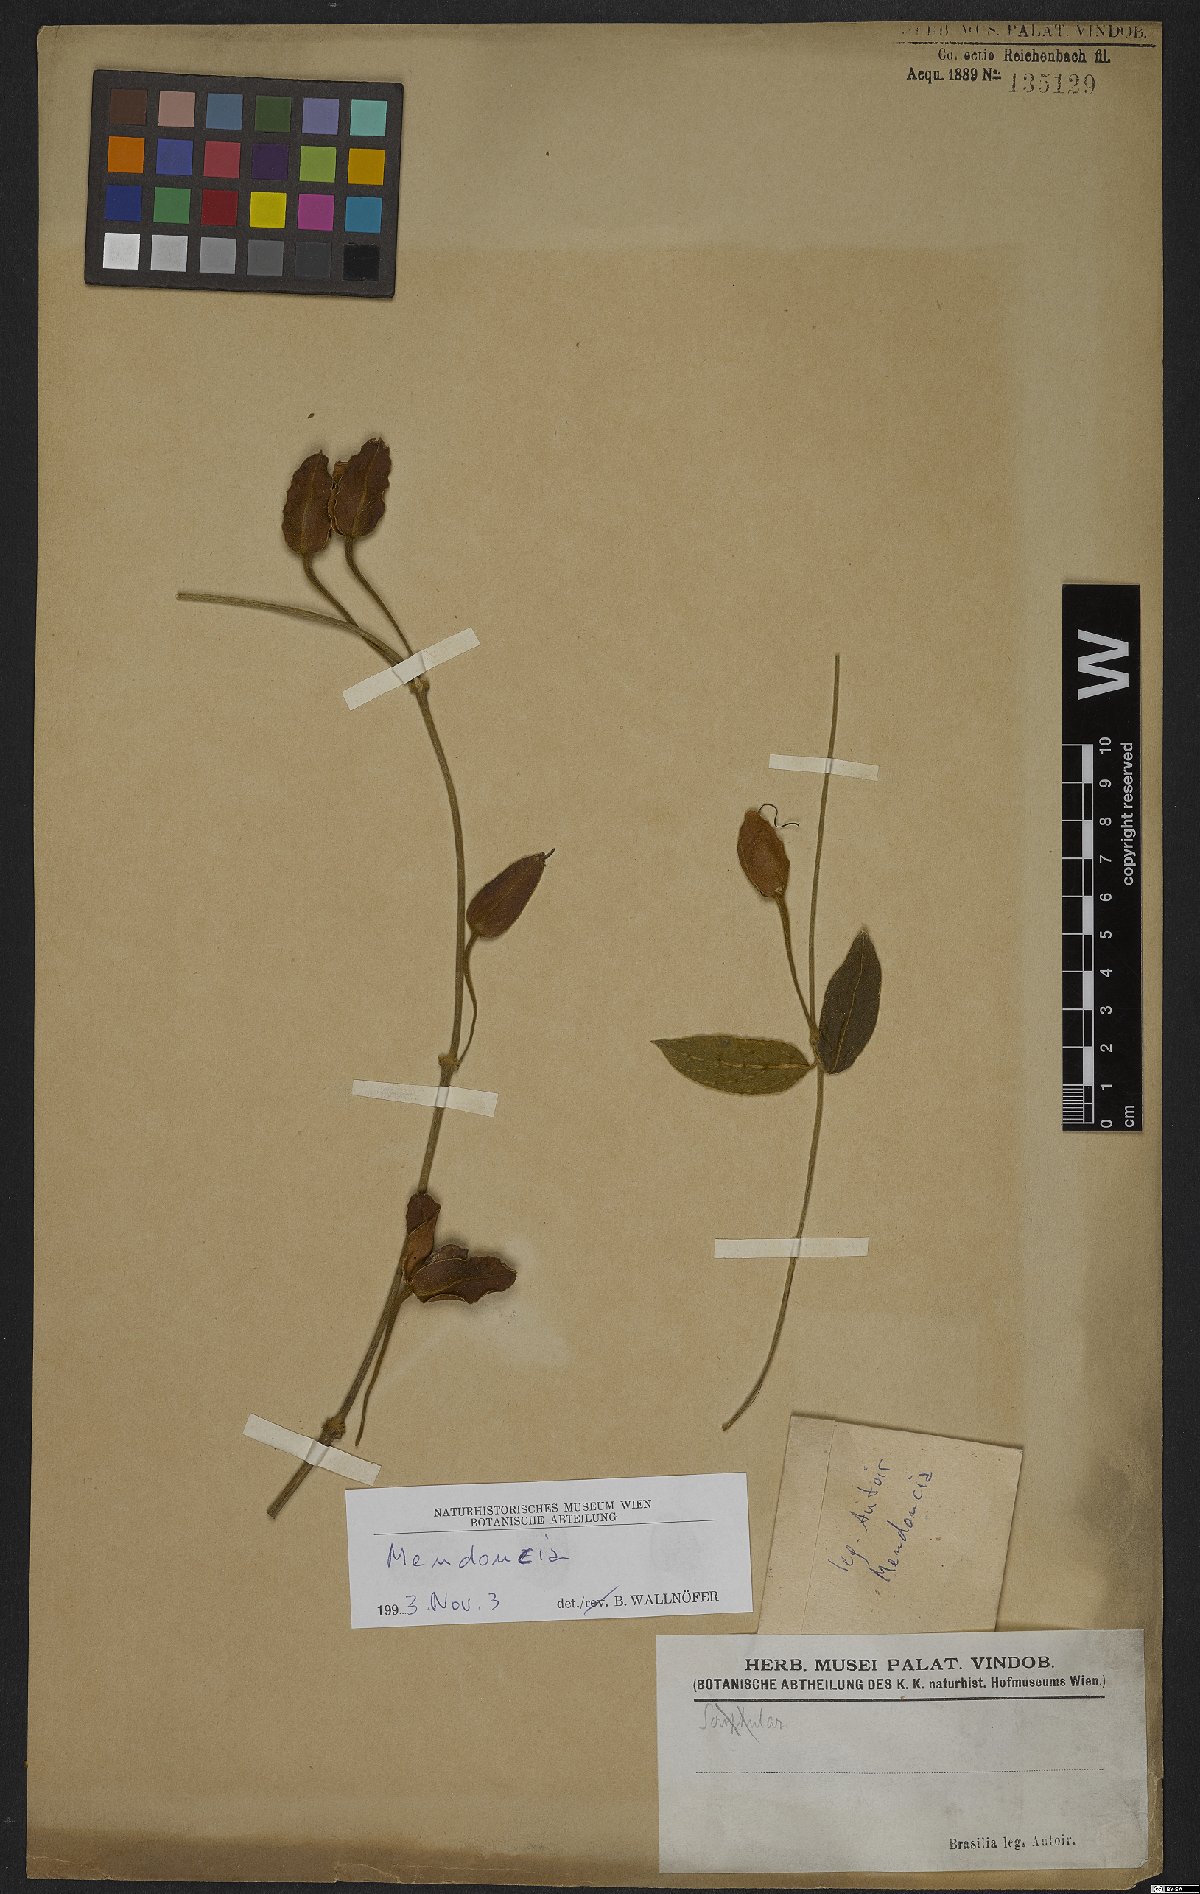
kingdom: Plantae
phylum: Tracheophyta
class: Magnoliopsida
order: Lamiales
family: Acanthaceae
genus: Mendoncia
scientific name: Mendoncia
